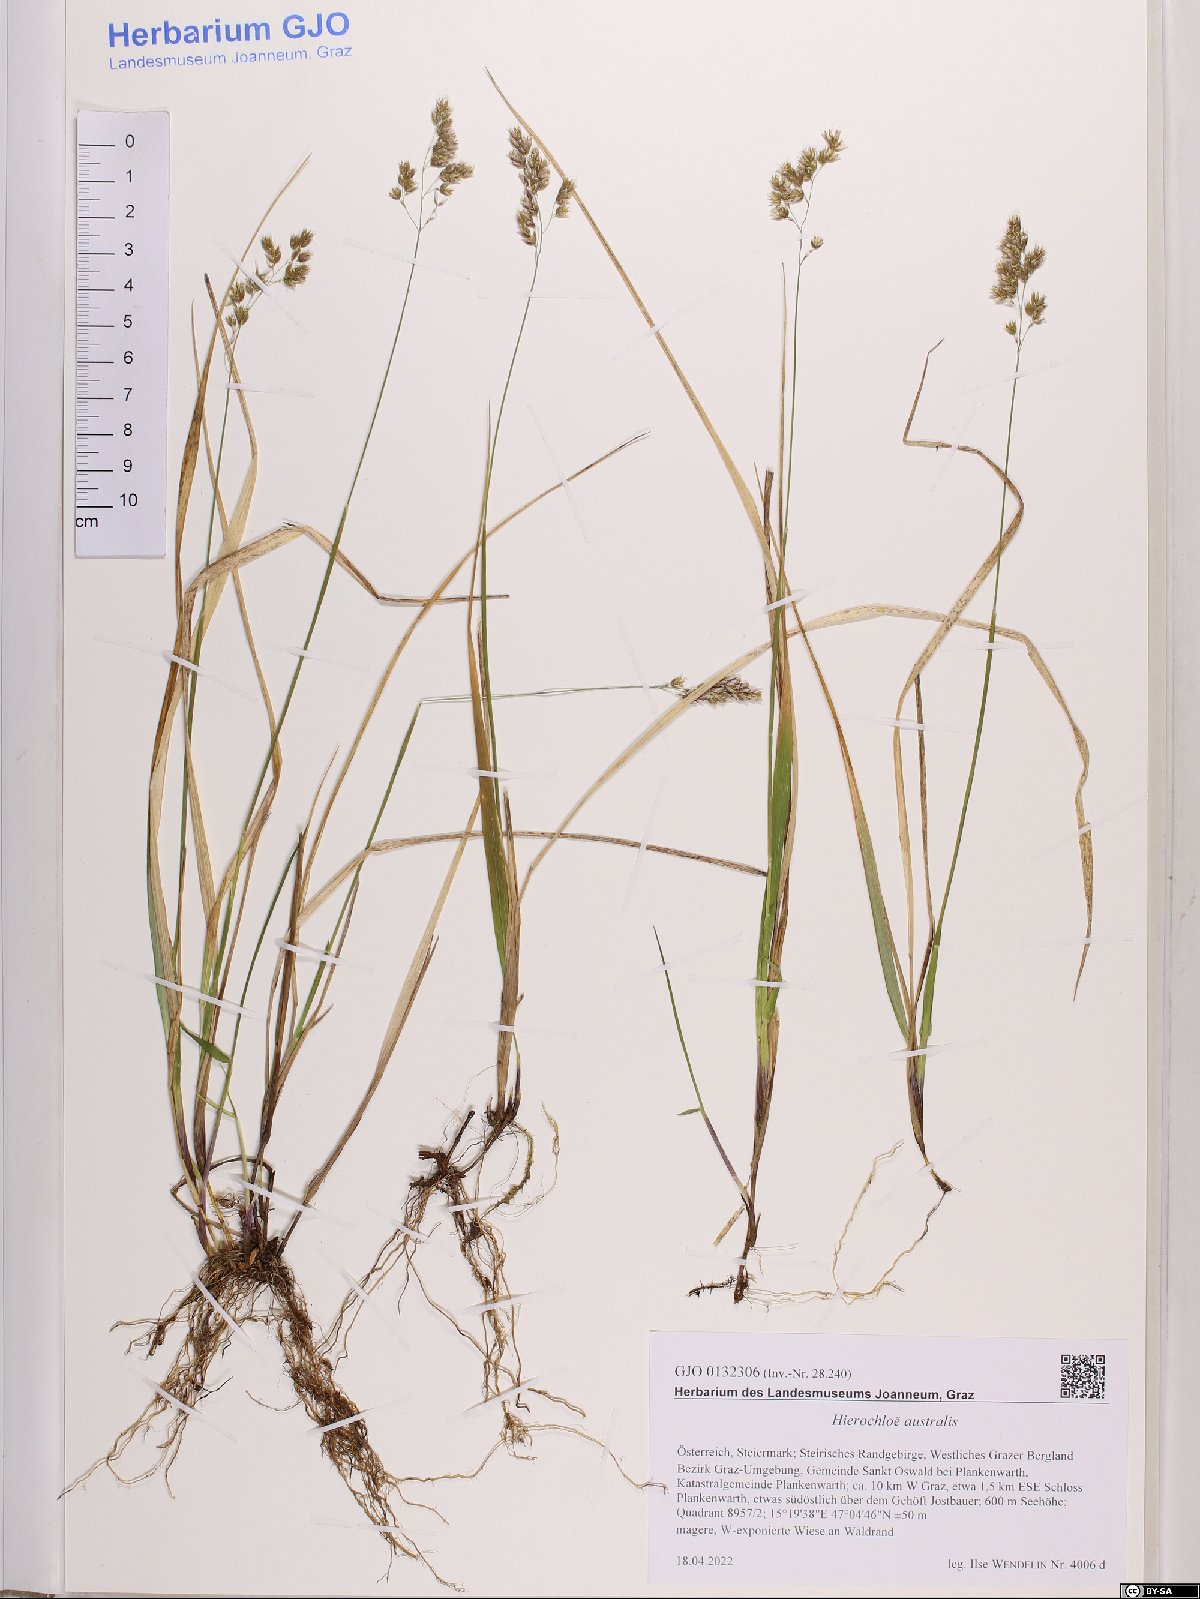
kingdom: Plantae
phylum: Tracheophyta
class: Liliopsida
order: Poales
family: Poaceae
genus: Anthoxanthum
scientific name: Anthoxanthum australe
